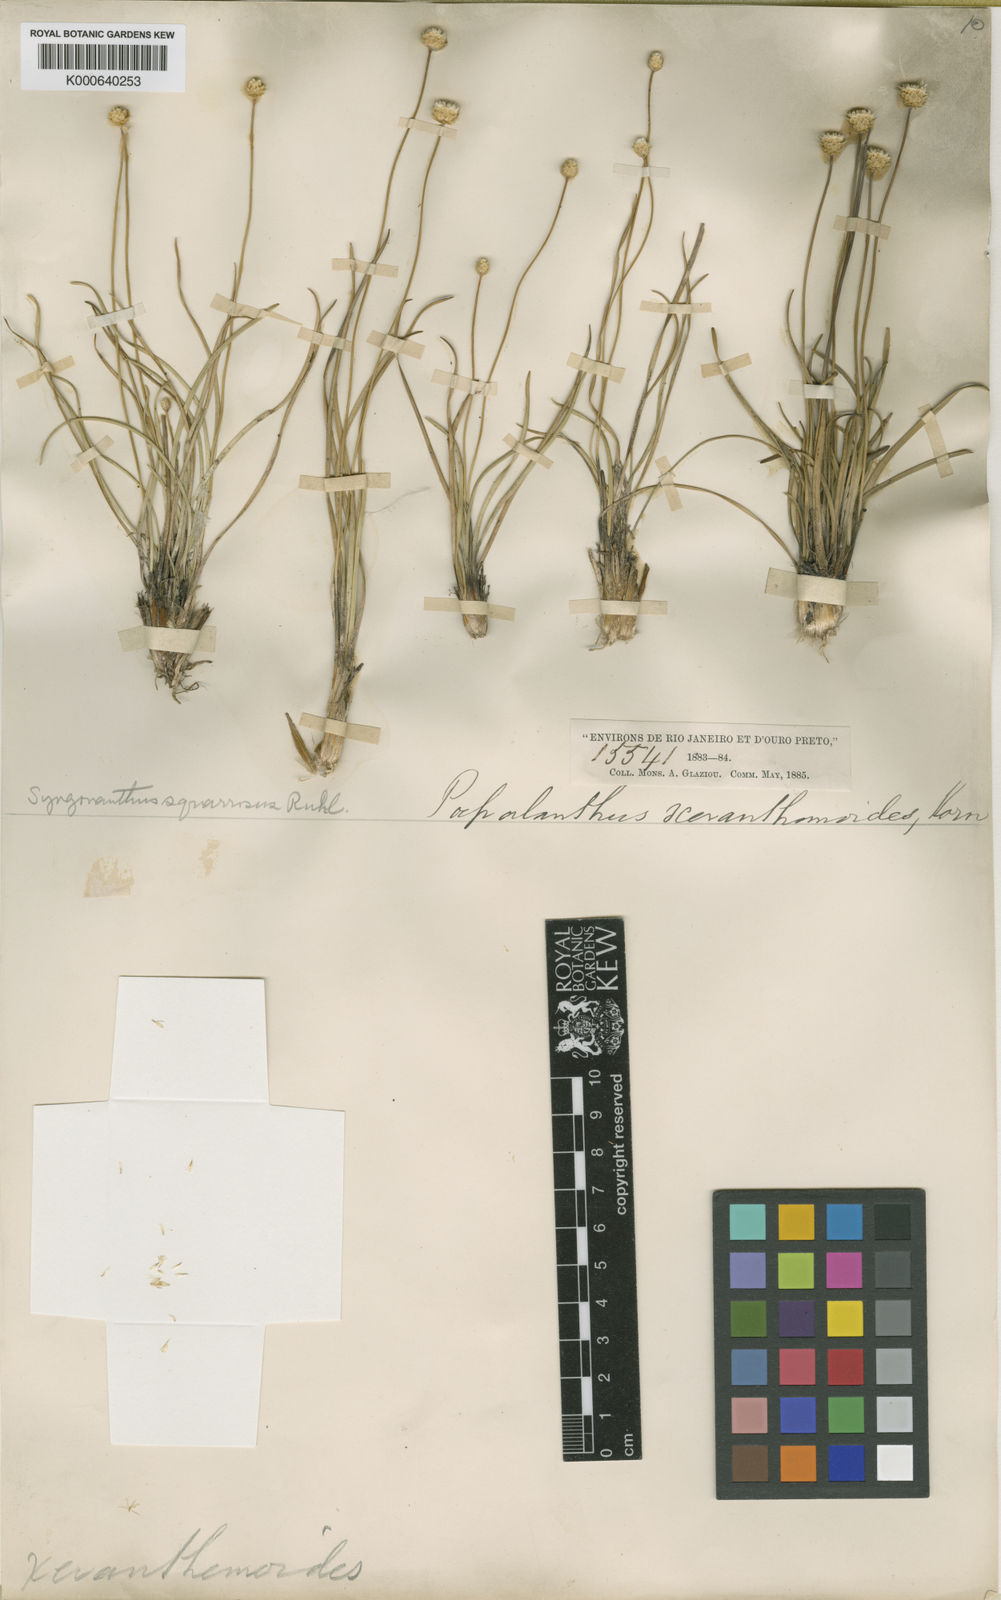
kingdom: Plantae
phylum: Tracheophyta
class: Liliopsida
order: Poales
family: Eriocaulaceae
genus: Comanthera
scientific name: Comanthera
